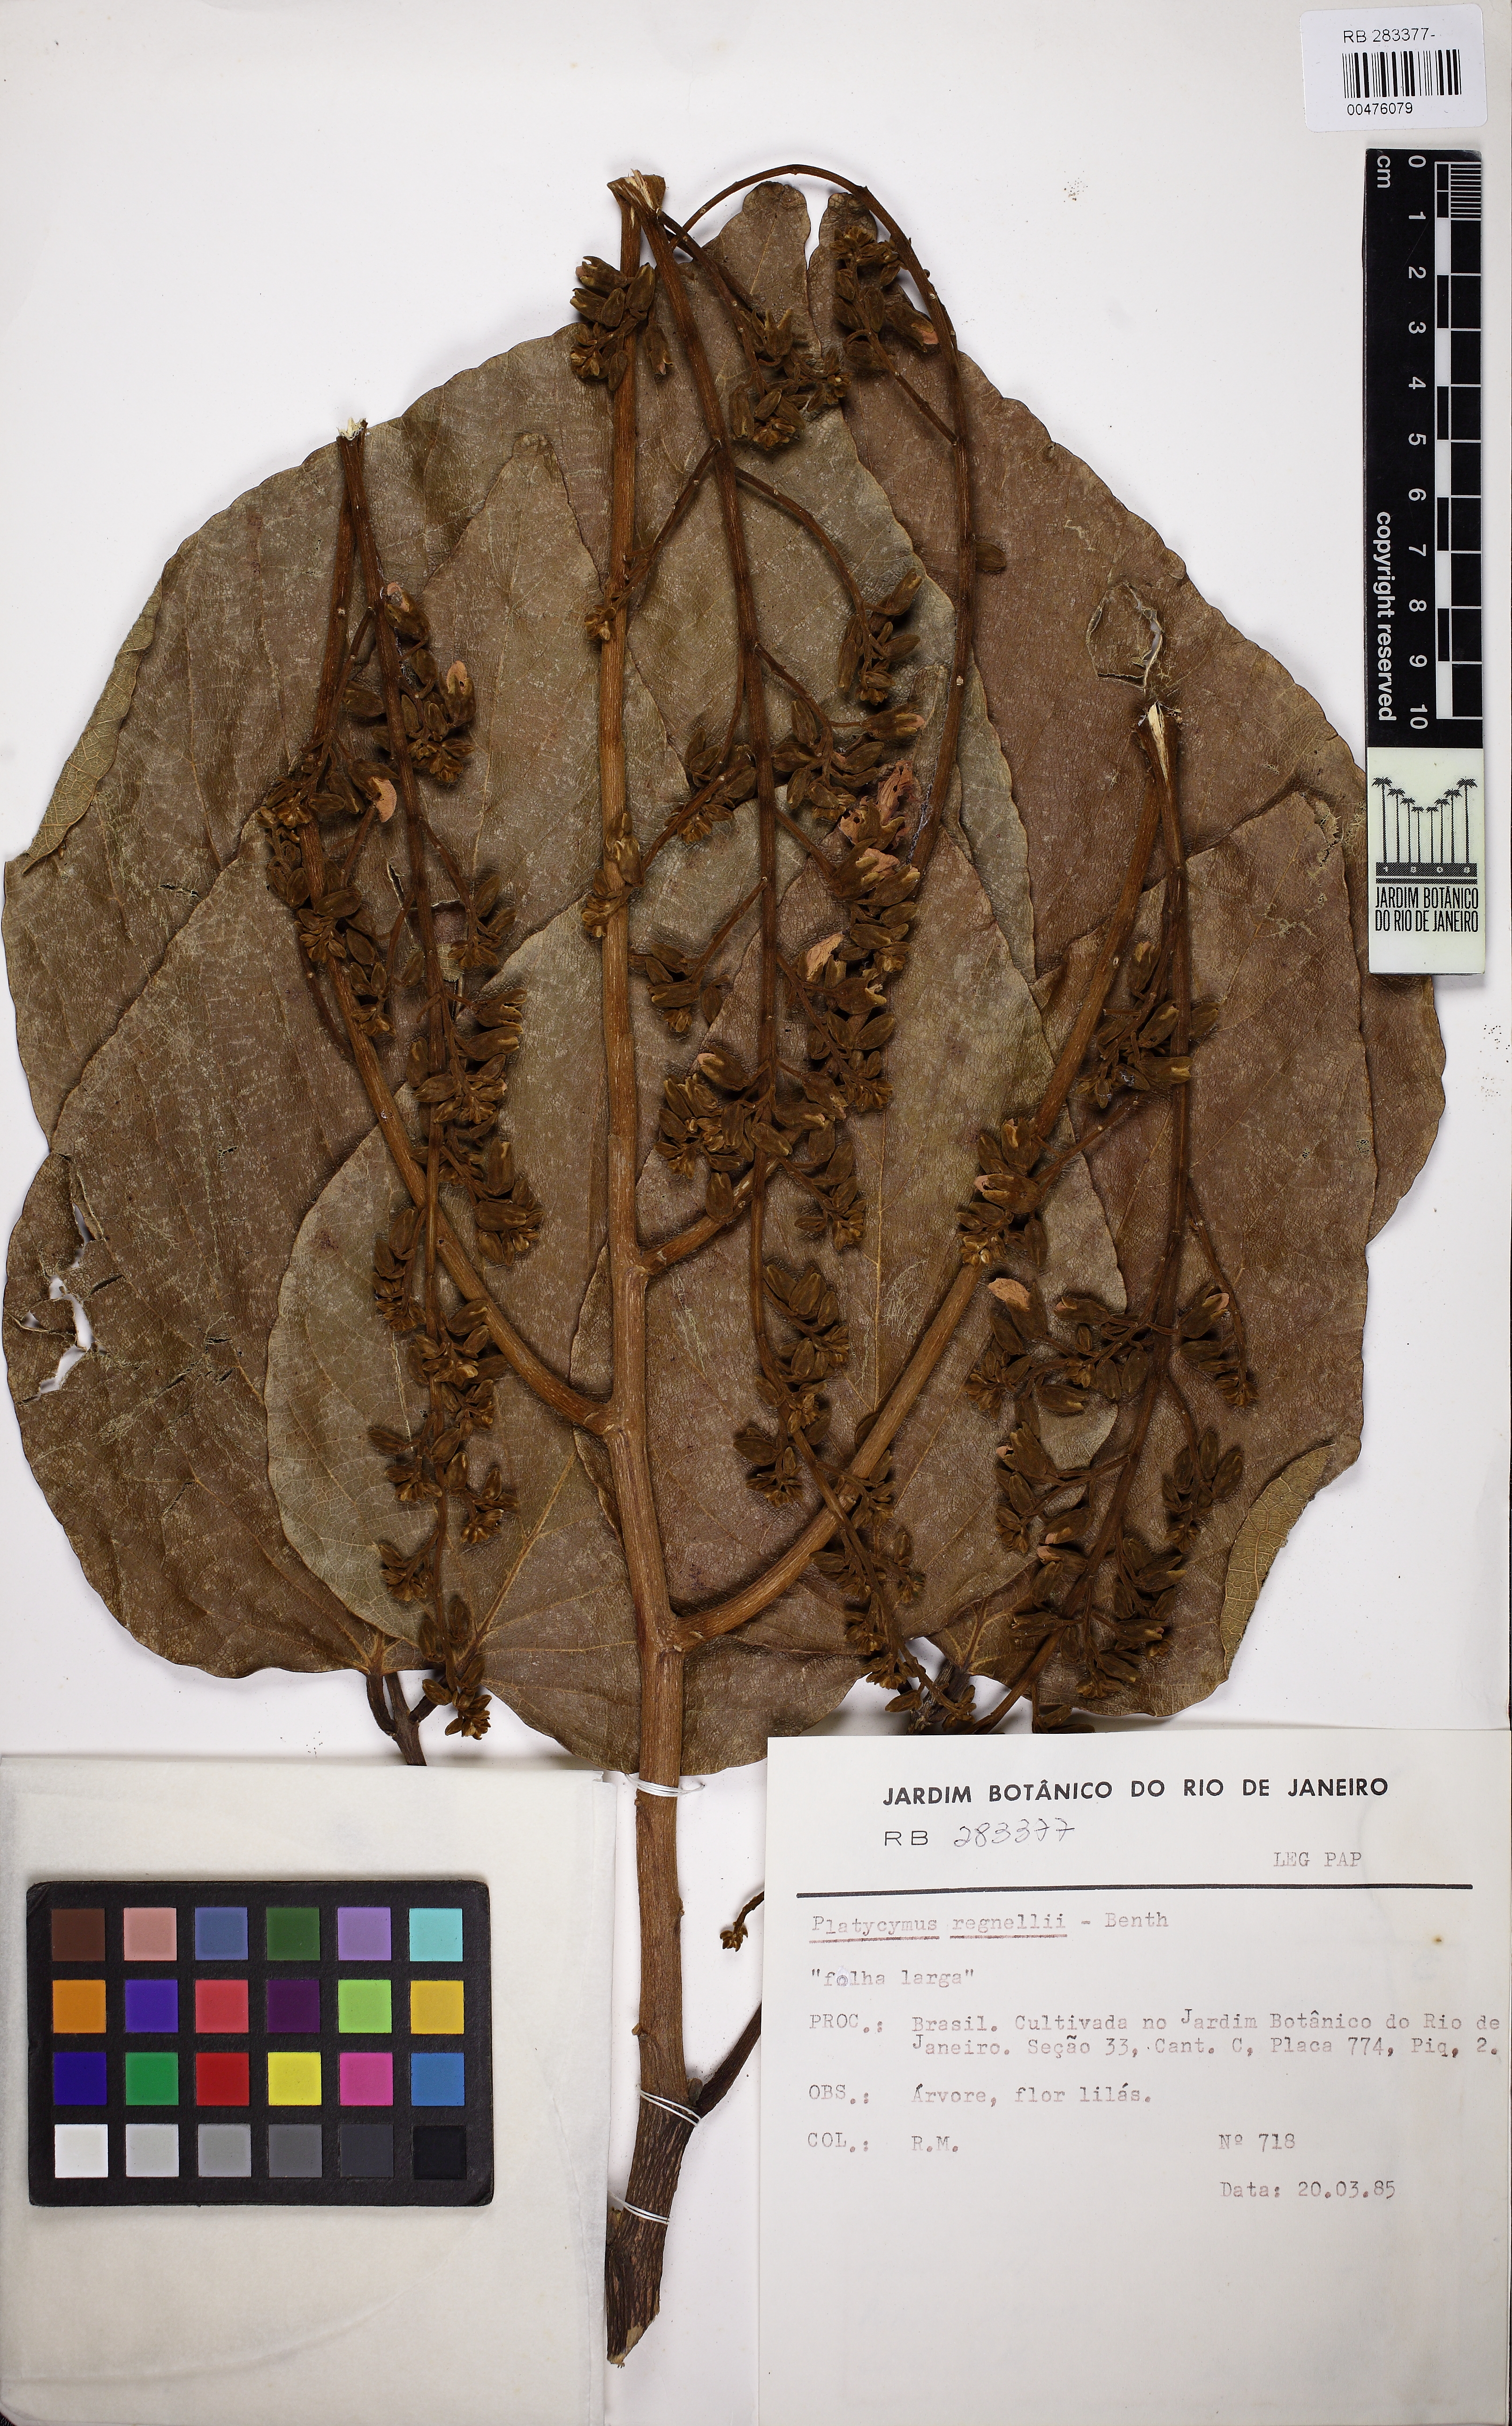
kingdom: Plantae
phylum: Tracheophyta
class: Magnoliopsida
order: Fabales
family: Fabaceae
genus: Platycyamus
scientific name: Platycyamus regnellii
